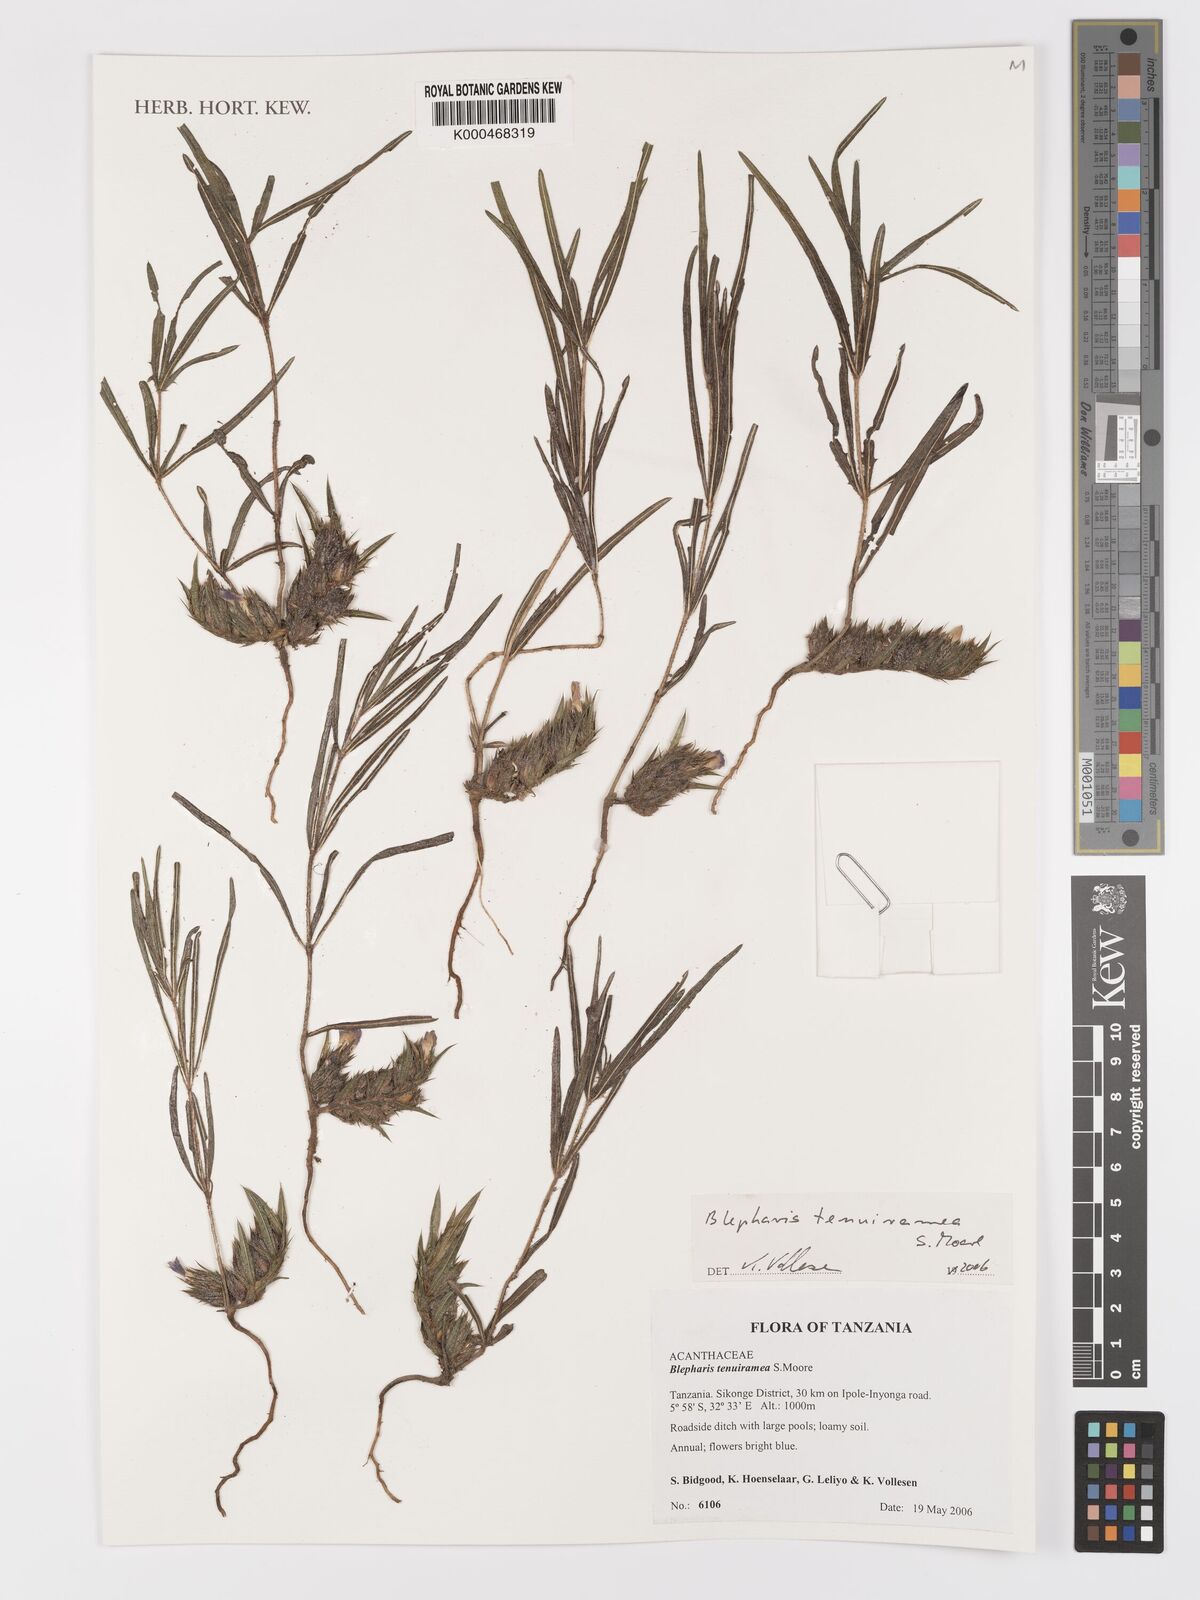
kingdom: Plantae
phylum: Tracheophyta
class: Magnoliopsida
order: Lamiales
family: Acanthaceae
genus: Blepharis
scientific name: Blepharis tenuiramea
